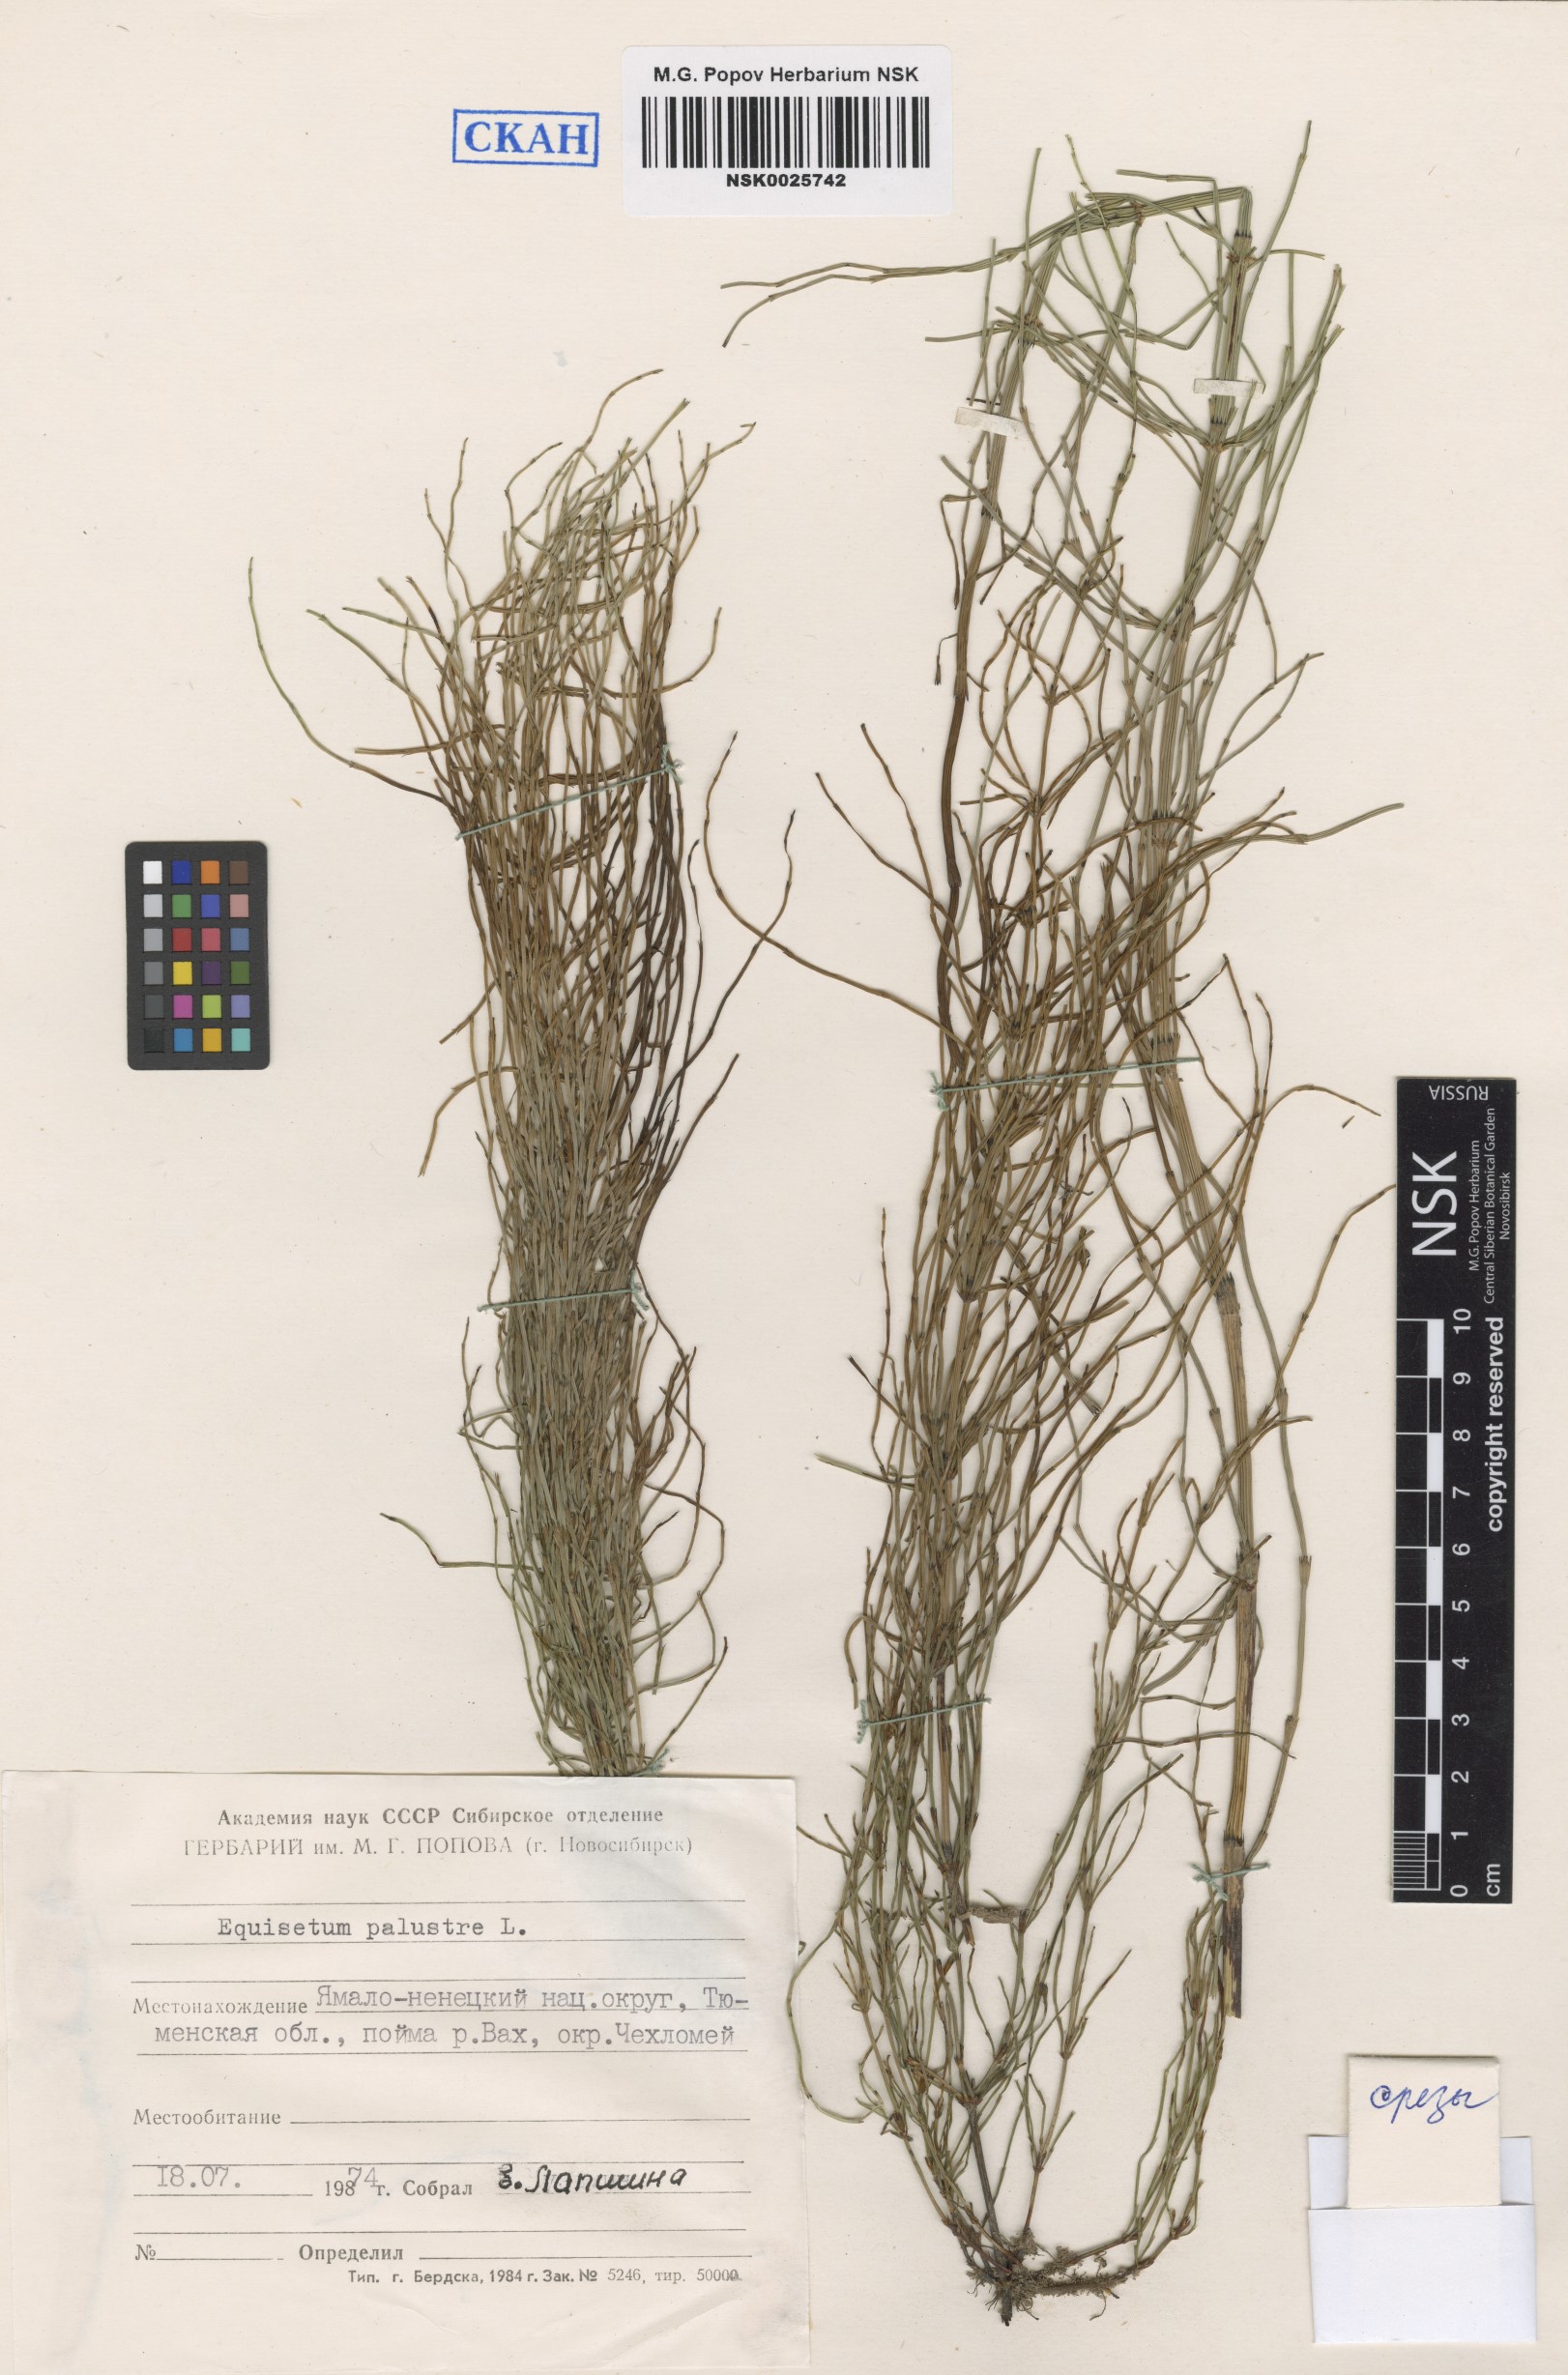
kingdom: Plantae
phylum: Tracheophyta
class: Polypodiopsida
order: Equisetales
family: Equisetaceae
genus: Equisetum
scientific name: Equisetum palustre
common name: Marsh horsetail
